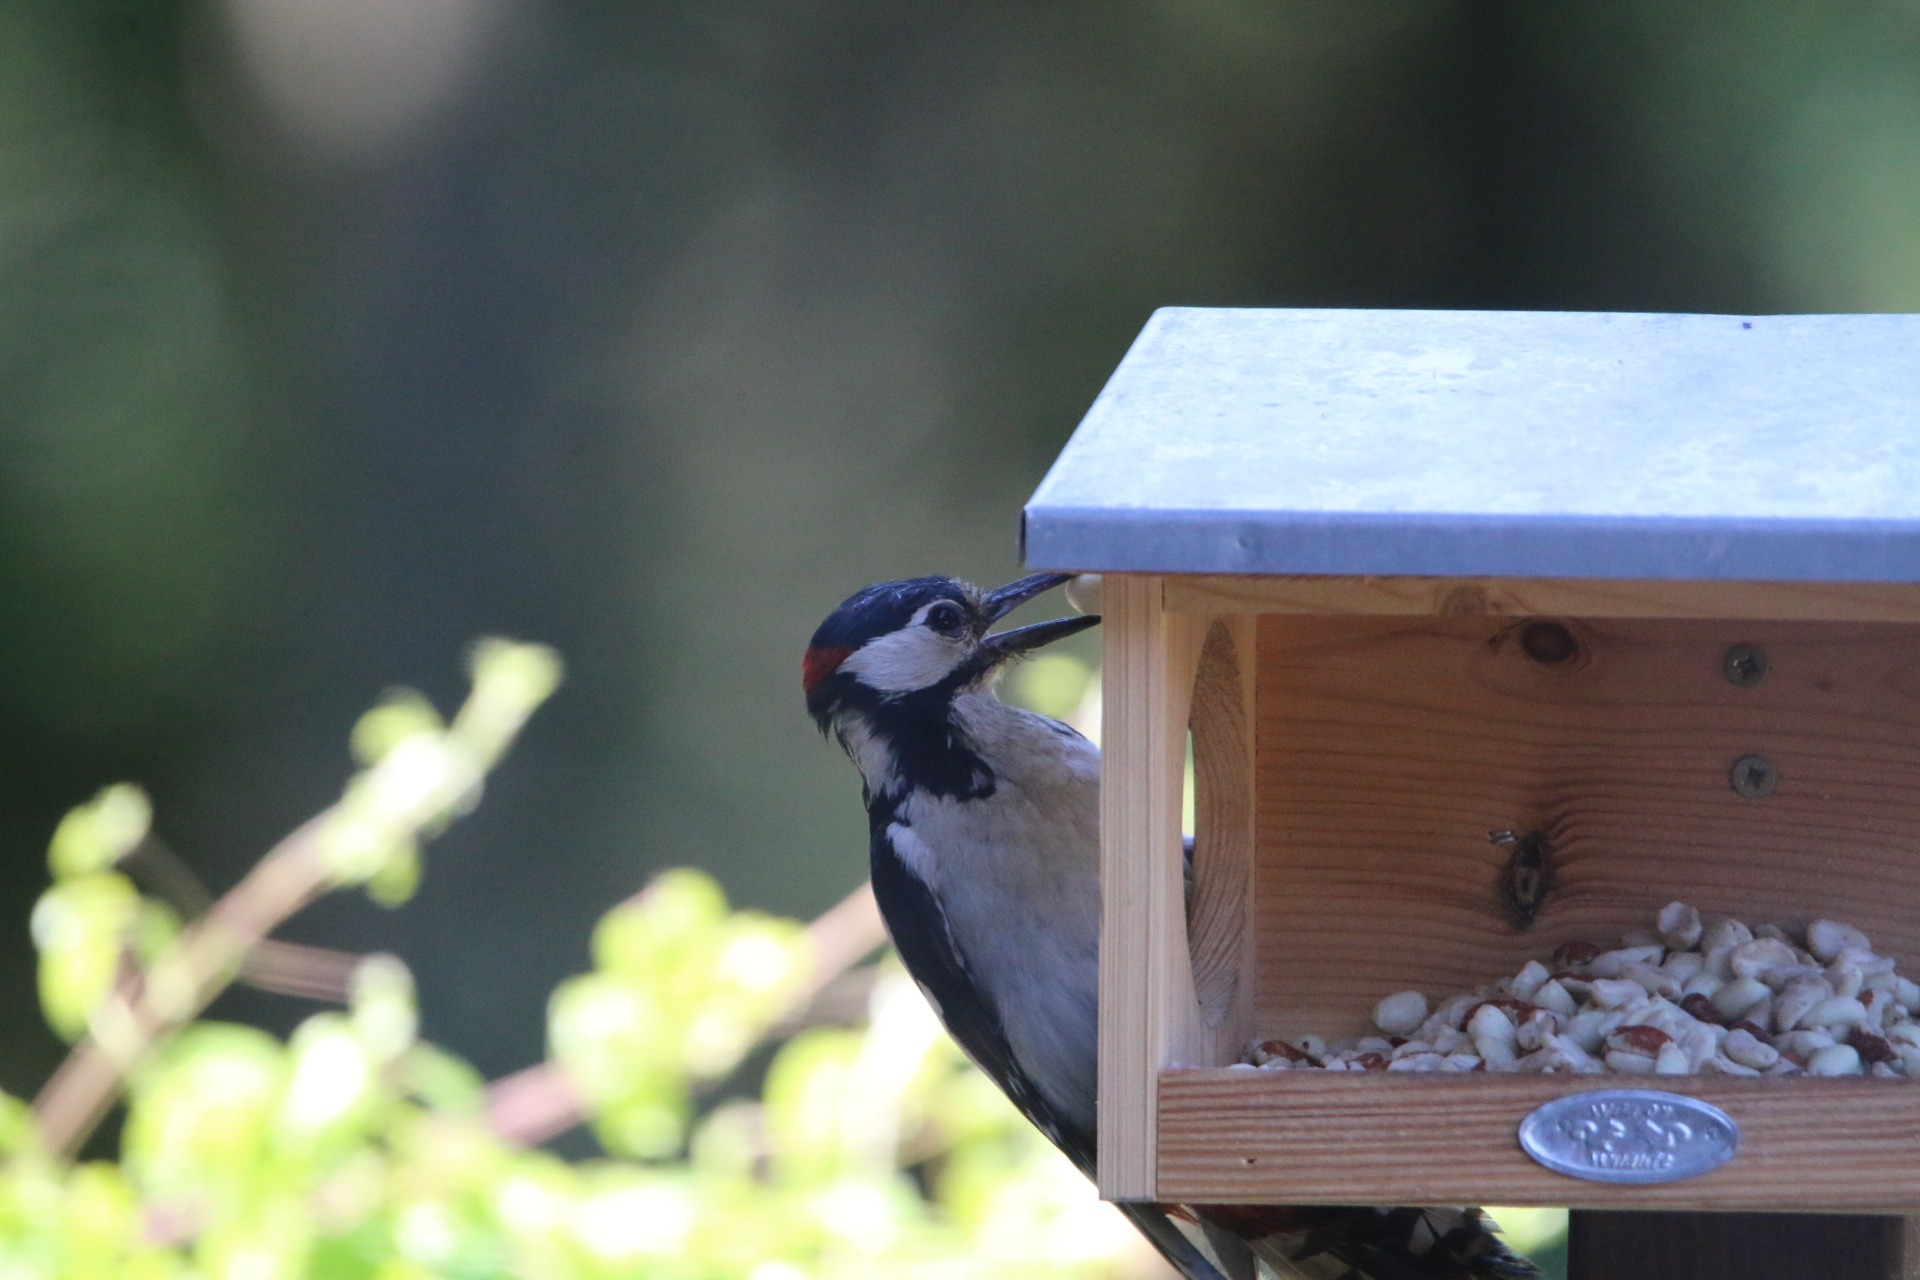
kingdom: Animalia
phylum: Chordata
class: Aves
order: Piciformes
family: Picidae
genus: Dendrocopos
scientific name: Dendrocopos major
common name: Stor flagspætte
